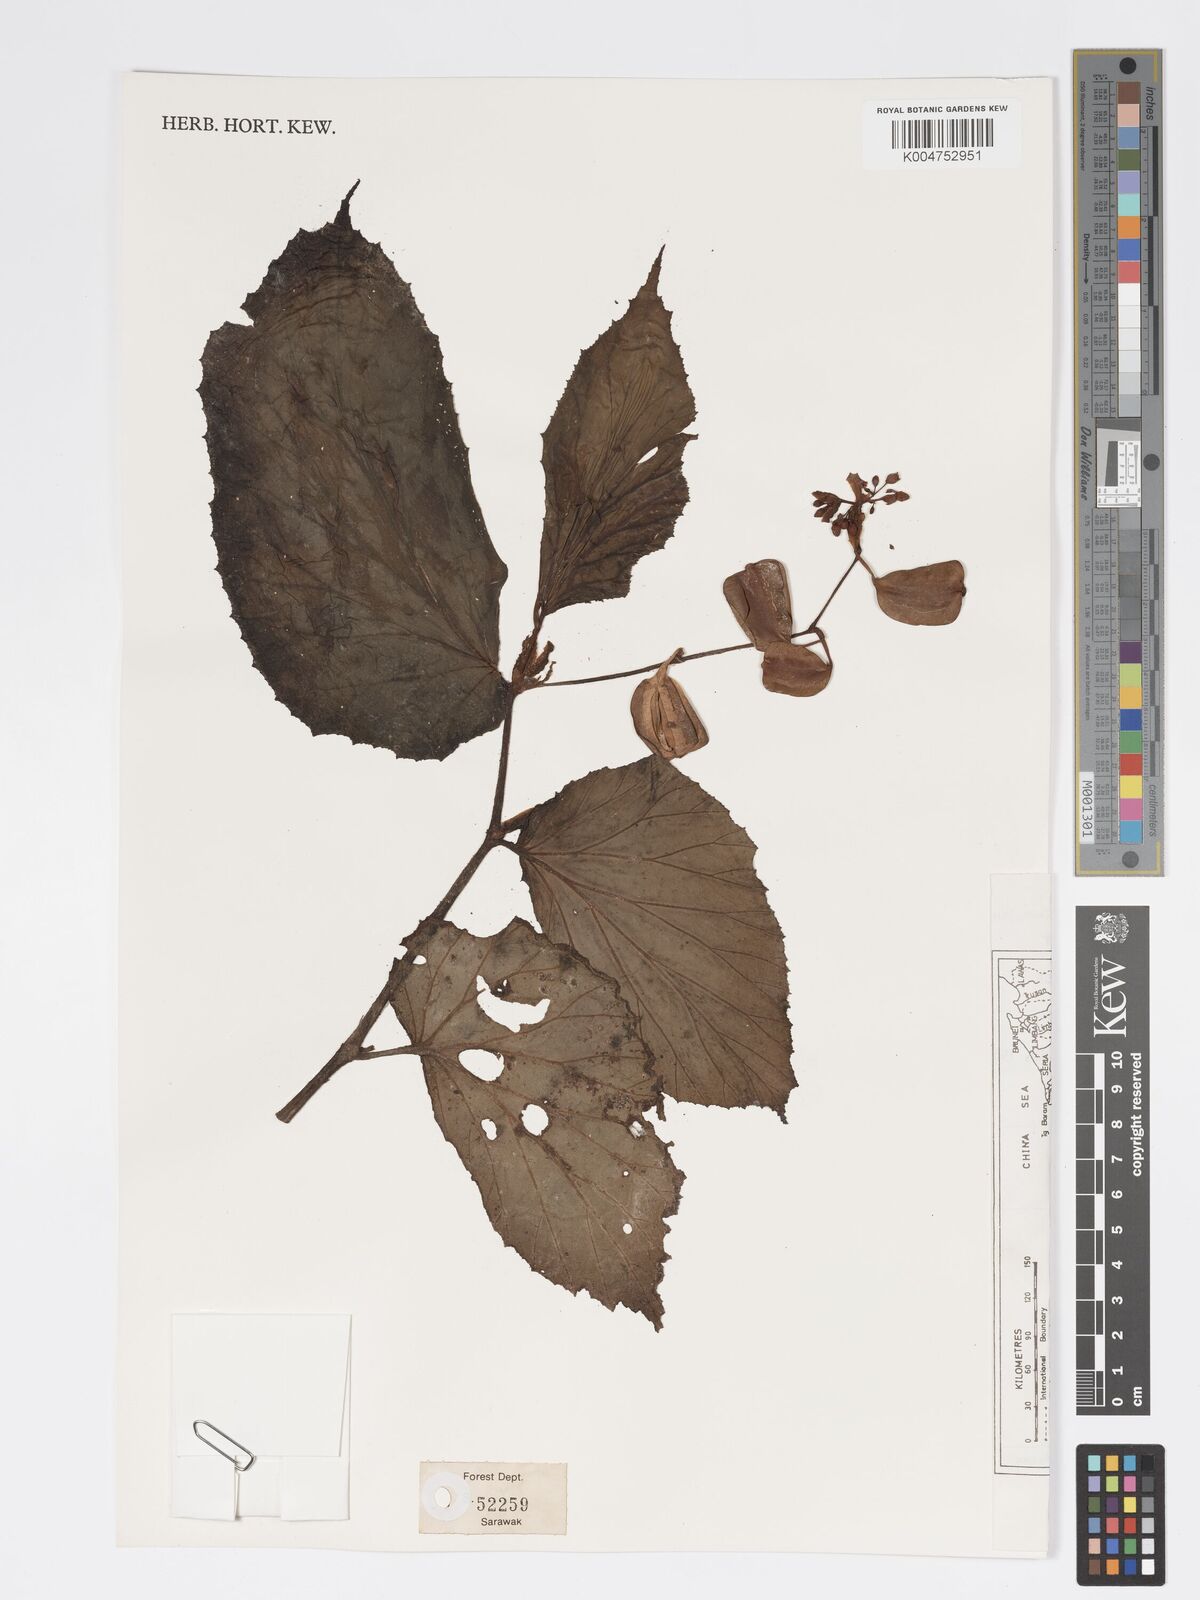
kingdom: Plantae
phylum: Tracheophyta
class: Magnoliopsida
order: Cucurbitales
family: Begoniaceae
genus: Begonia
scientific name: Begonia
